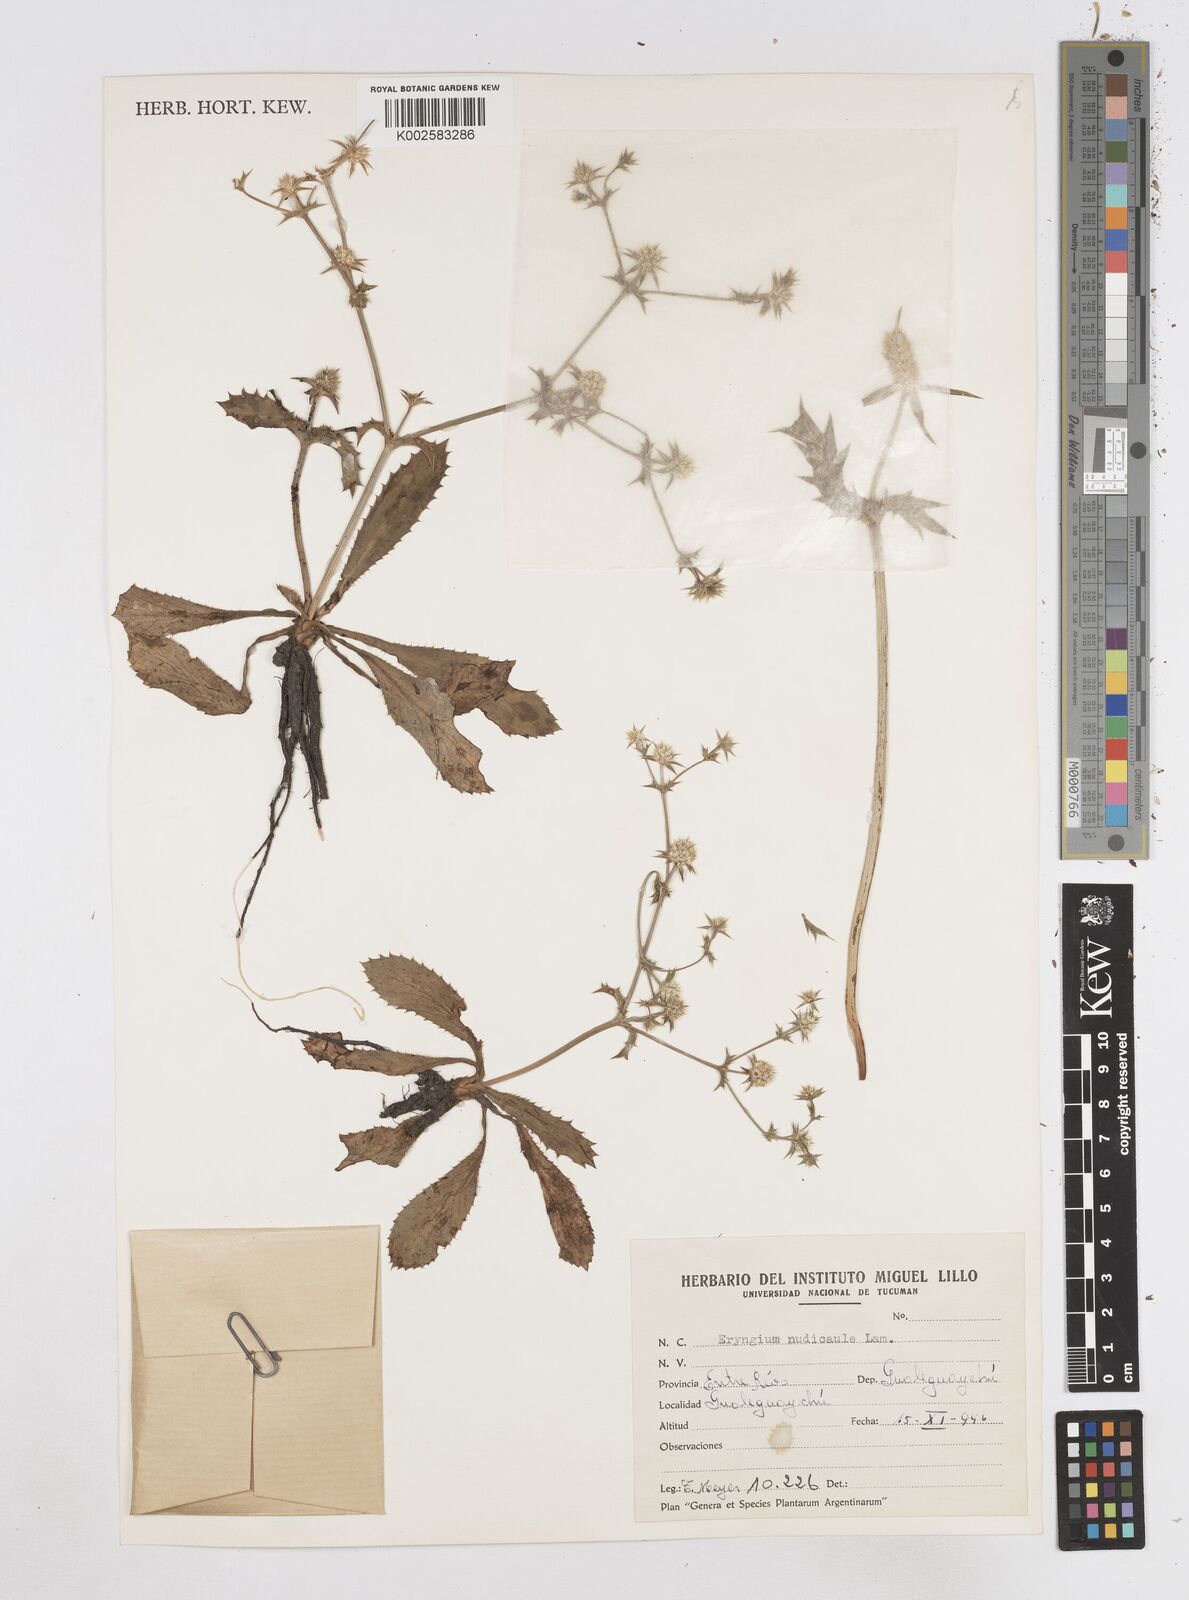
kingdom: Plantae
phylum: Tracheophyta
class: Magnoliopsida
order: Apiales
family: Apiaceae
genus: Eryngium
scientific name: Eryngium nudicaule
